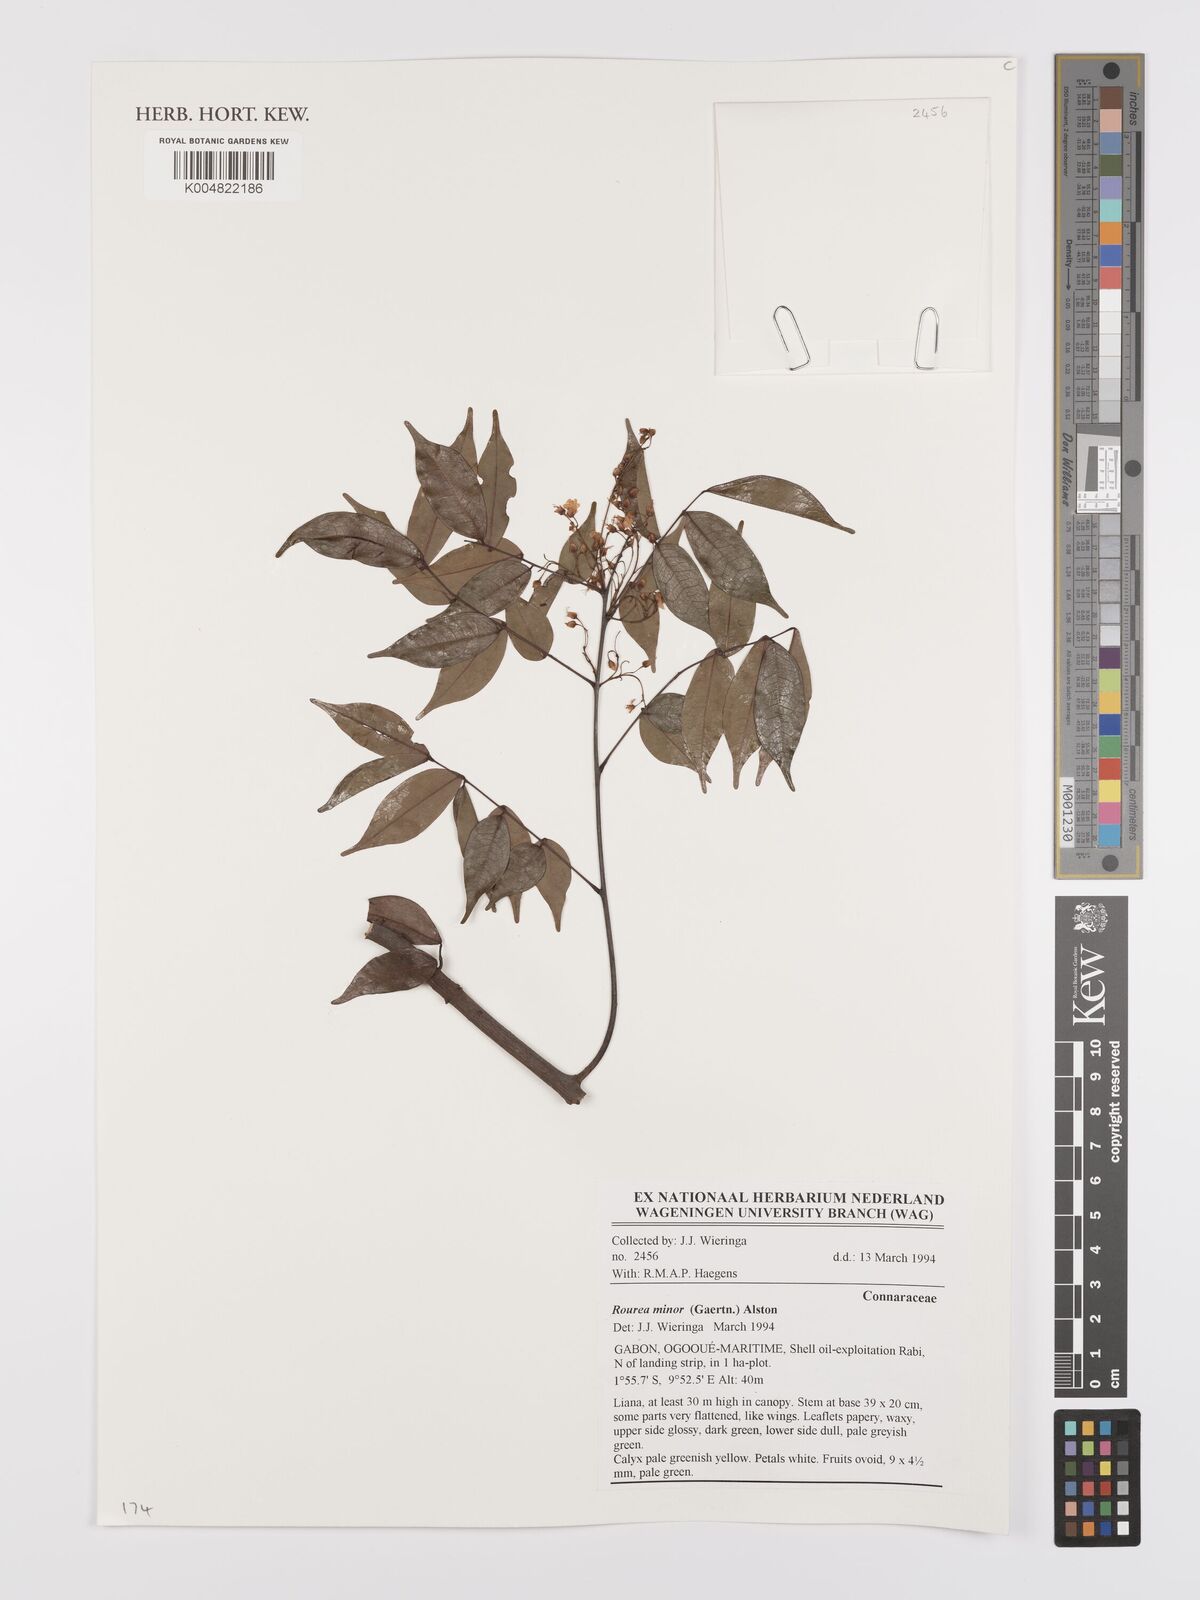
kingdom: Plantae
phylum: Tracheophyta
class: Magnoliopsida
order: Oxalidales
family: Connaraceae
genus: Rourea
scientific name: Rourea minor
